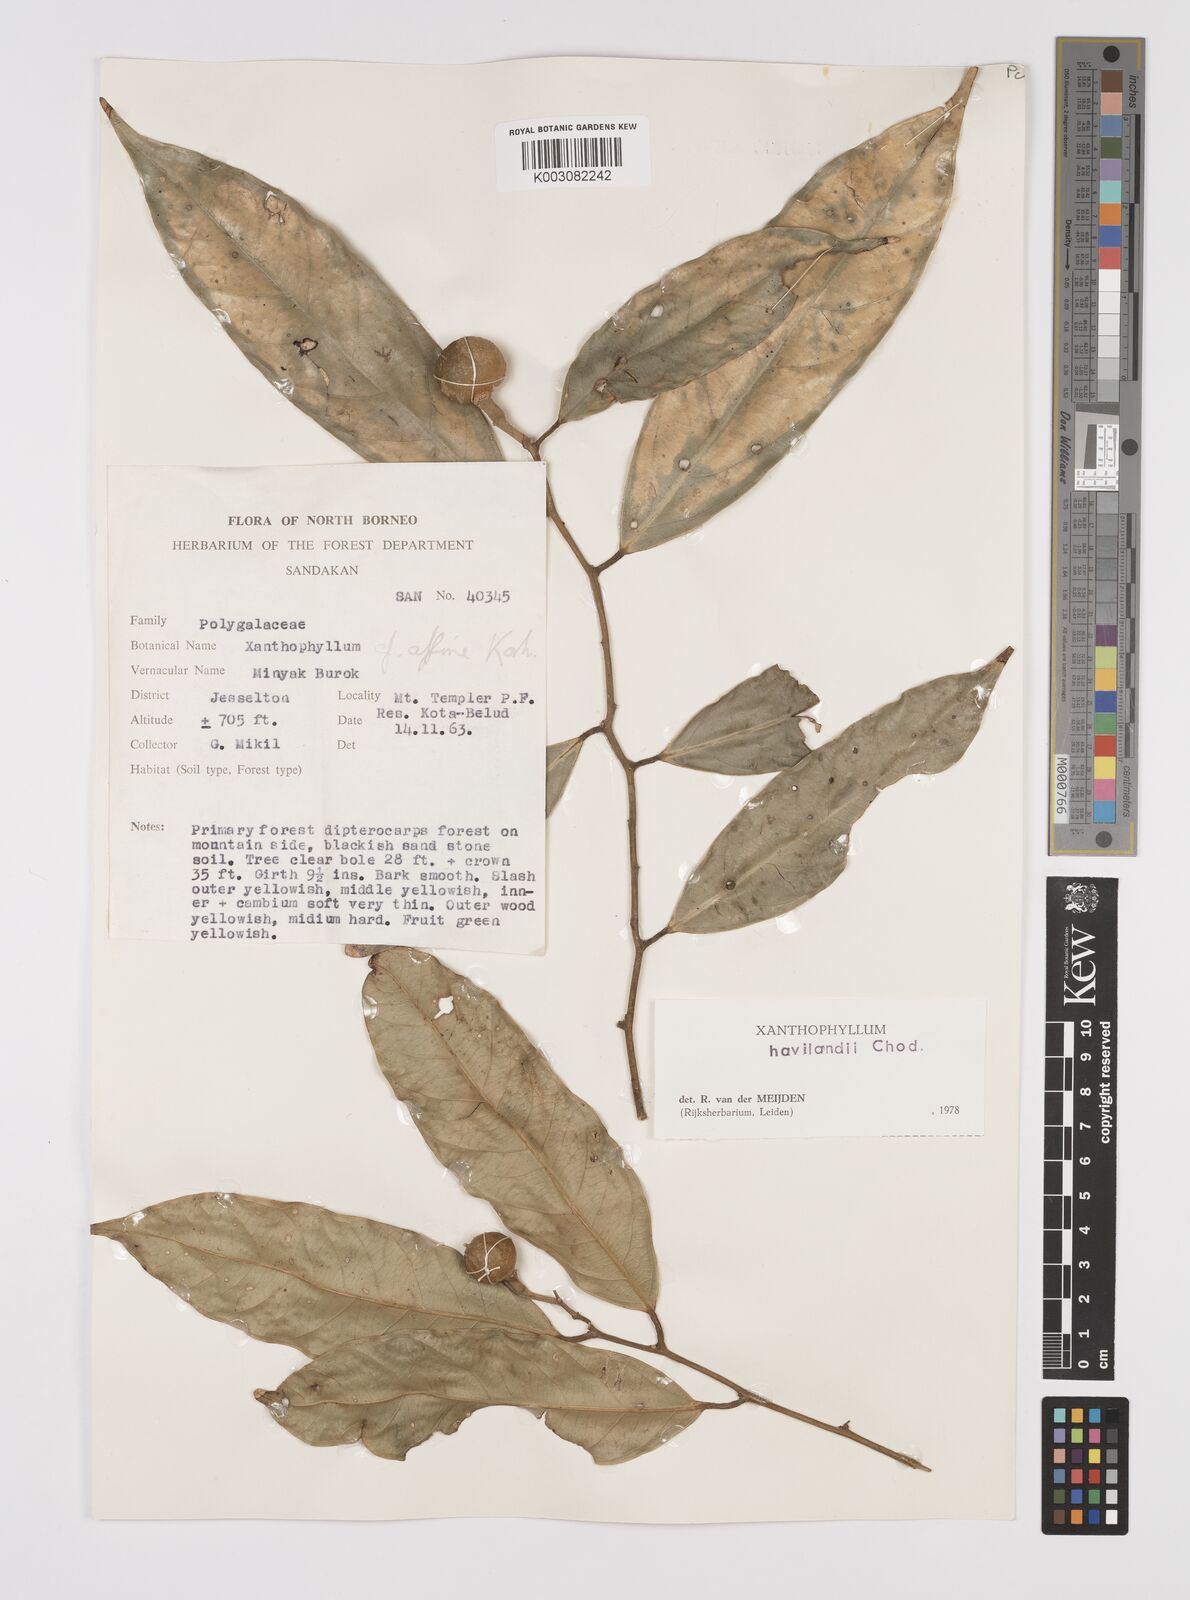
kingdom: Plantae
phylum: Tracheophyta
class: Magnoliopsida
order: Fabales
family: Polygalaceae
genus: Xanthophyllum
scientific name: Xanthophyllum flavescens
